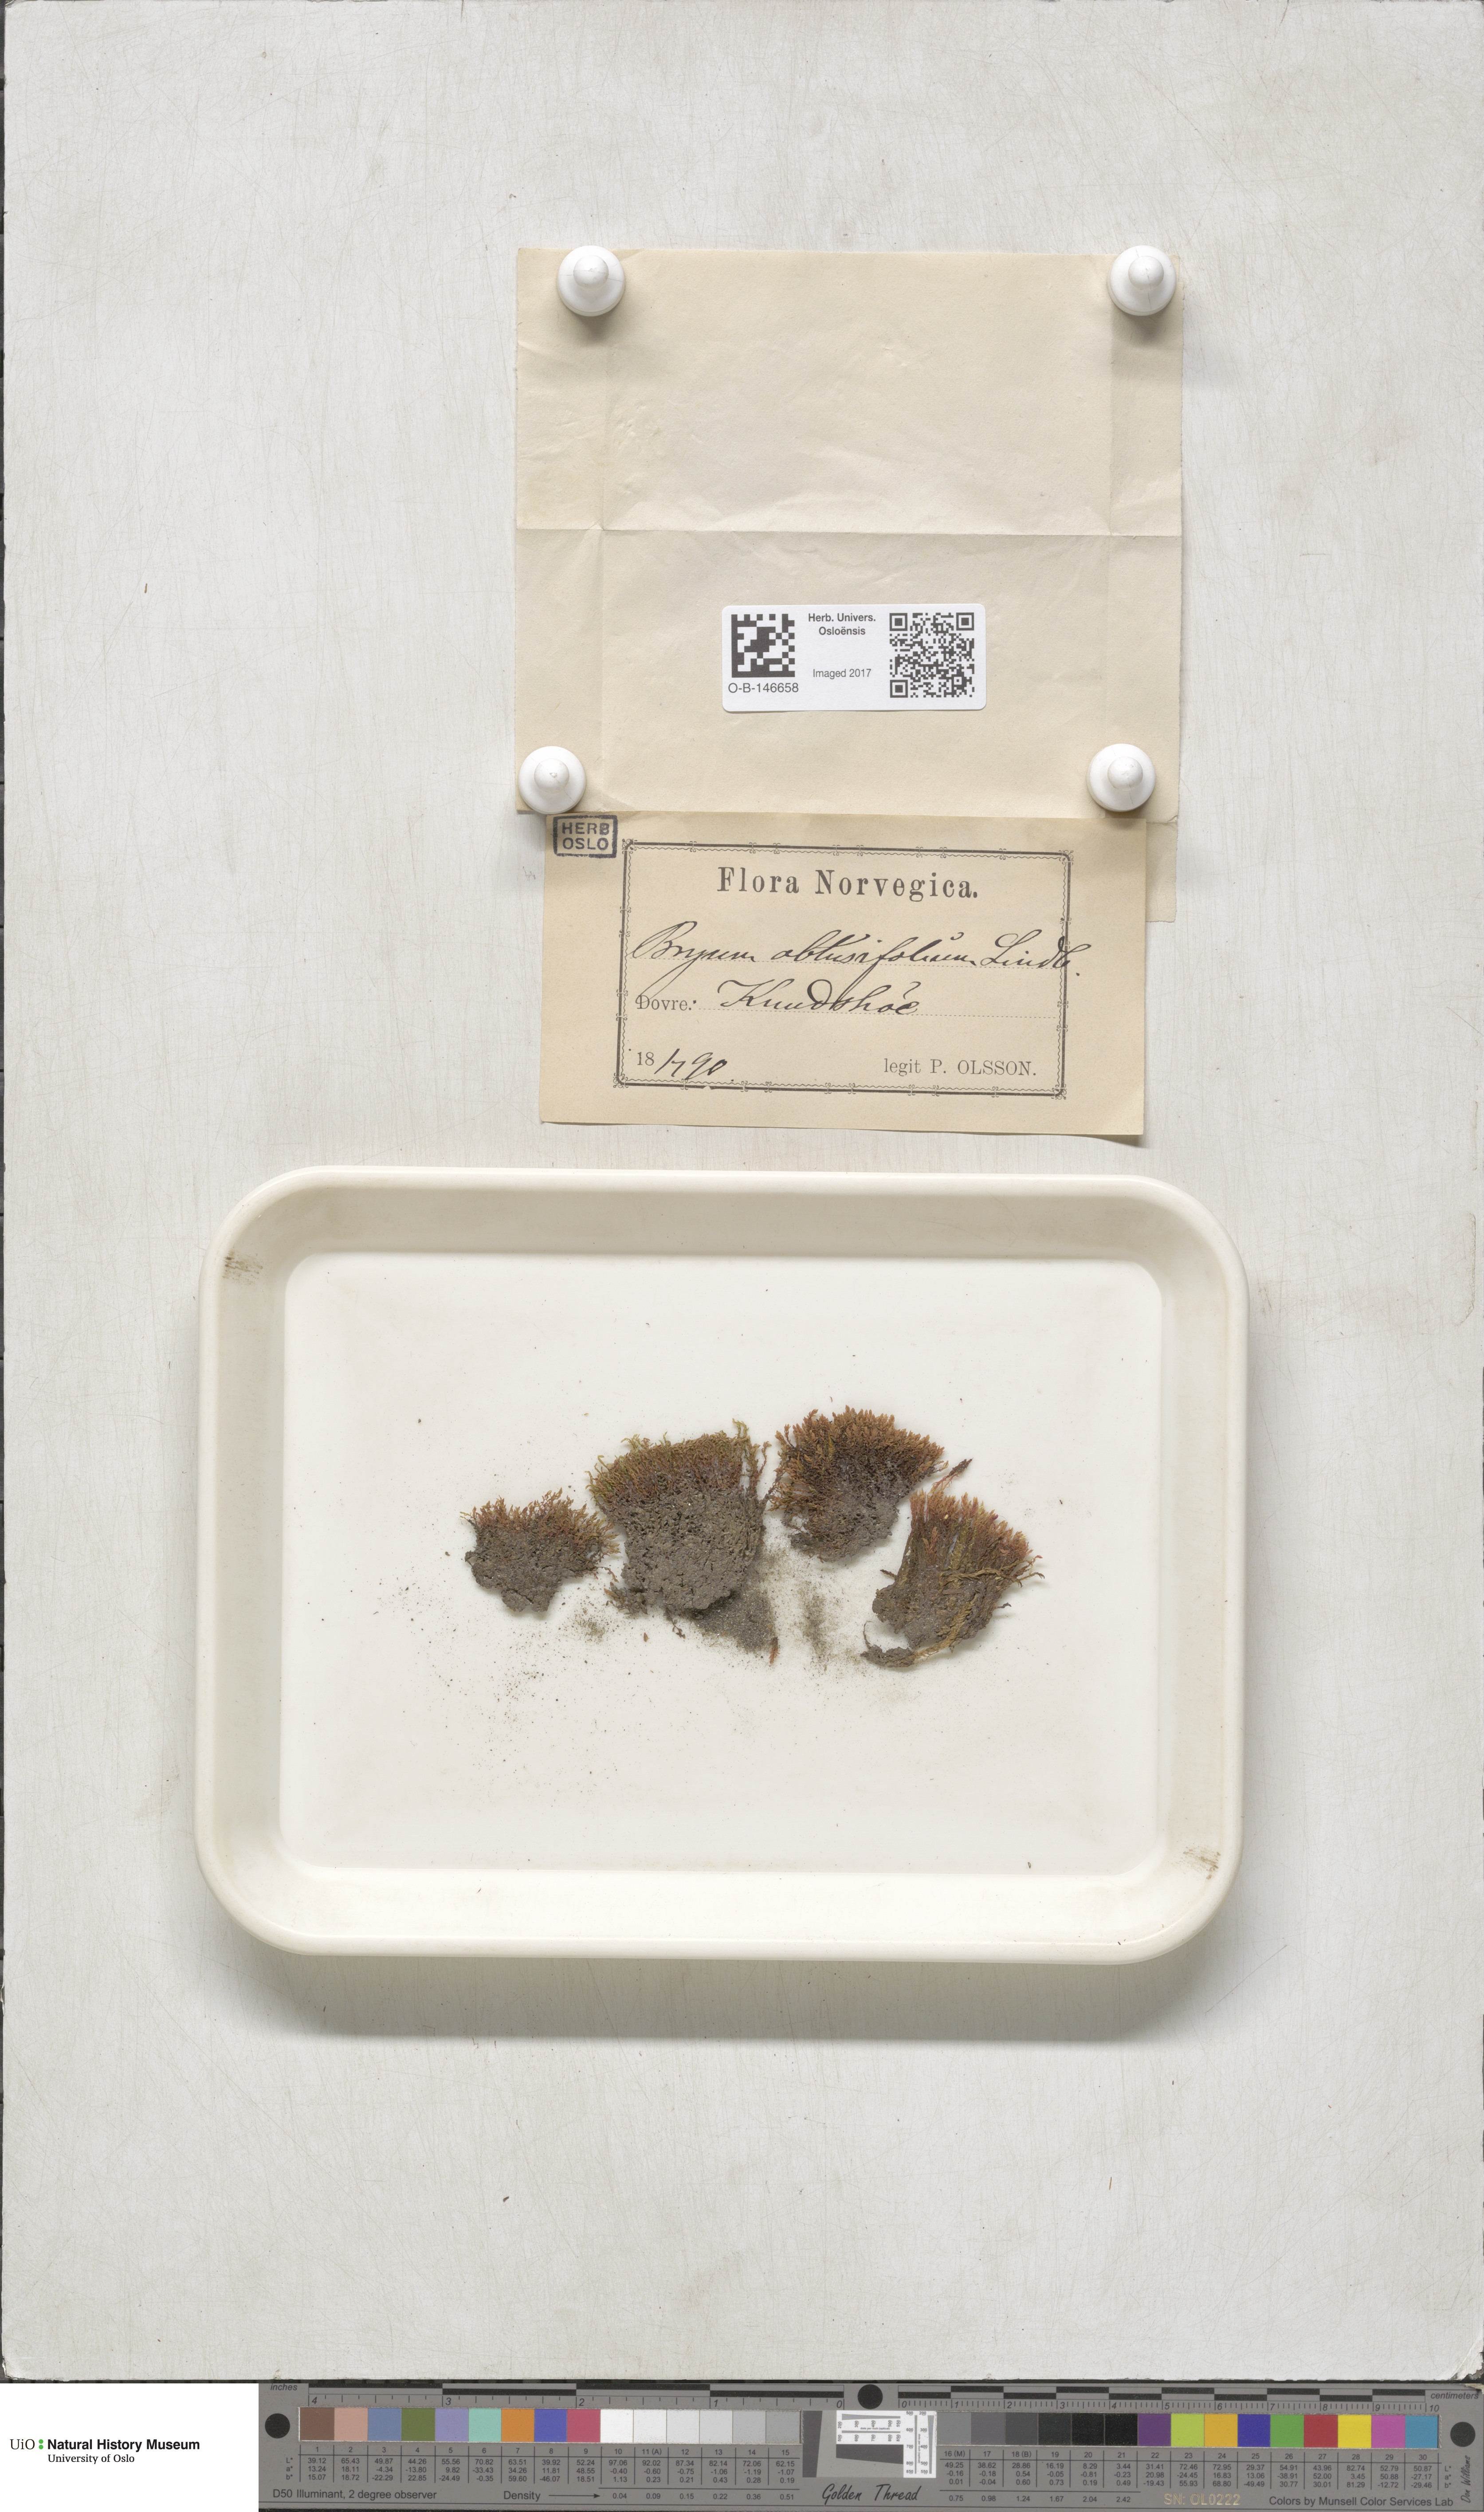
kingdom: Plantae
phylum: Bryophyta
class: Bryopsida
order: Bryales
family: Mniaceae
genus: Pohlia
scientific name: Pohlia obtusifolia
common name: Blunt nodding moss
